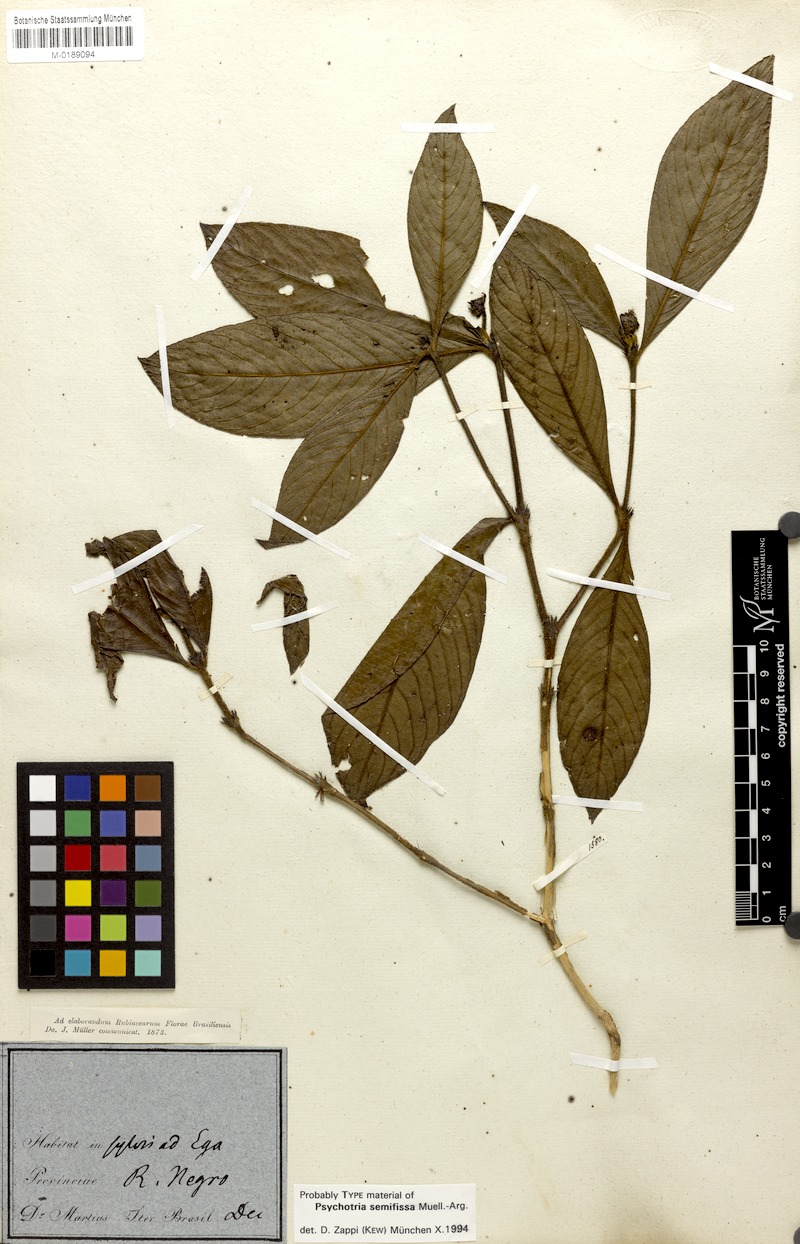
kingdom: Plantae
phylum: Tracheophyta
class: Magnoliopsida
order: Gentianales
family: Rubiaceae
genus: Psychotria
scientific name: Psychotria semifissa
